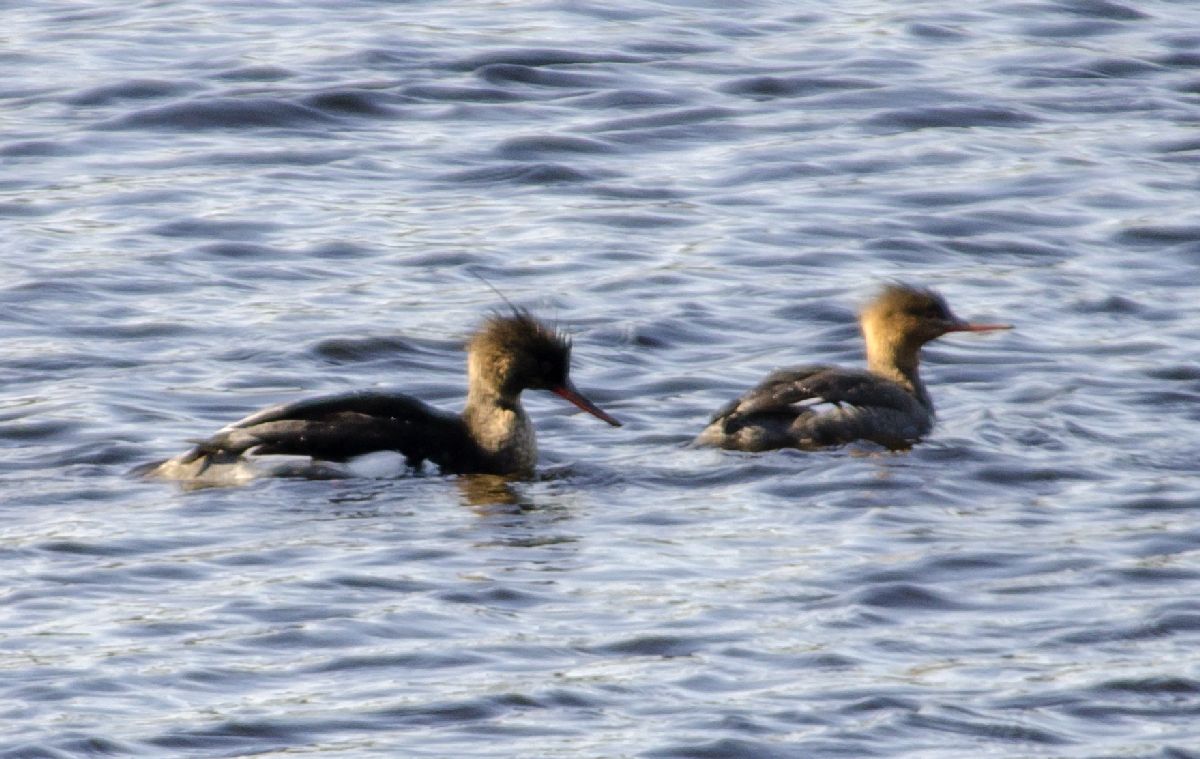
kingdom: Animalia
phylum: Chordata
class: Aves
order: Anseriformes
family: Anatidae
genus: Mergus
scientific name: Mergus serrator
